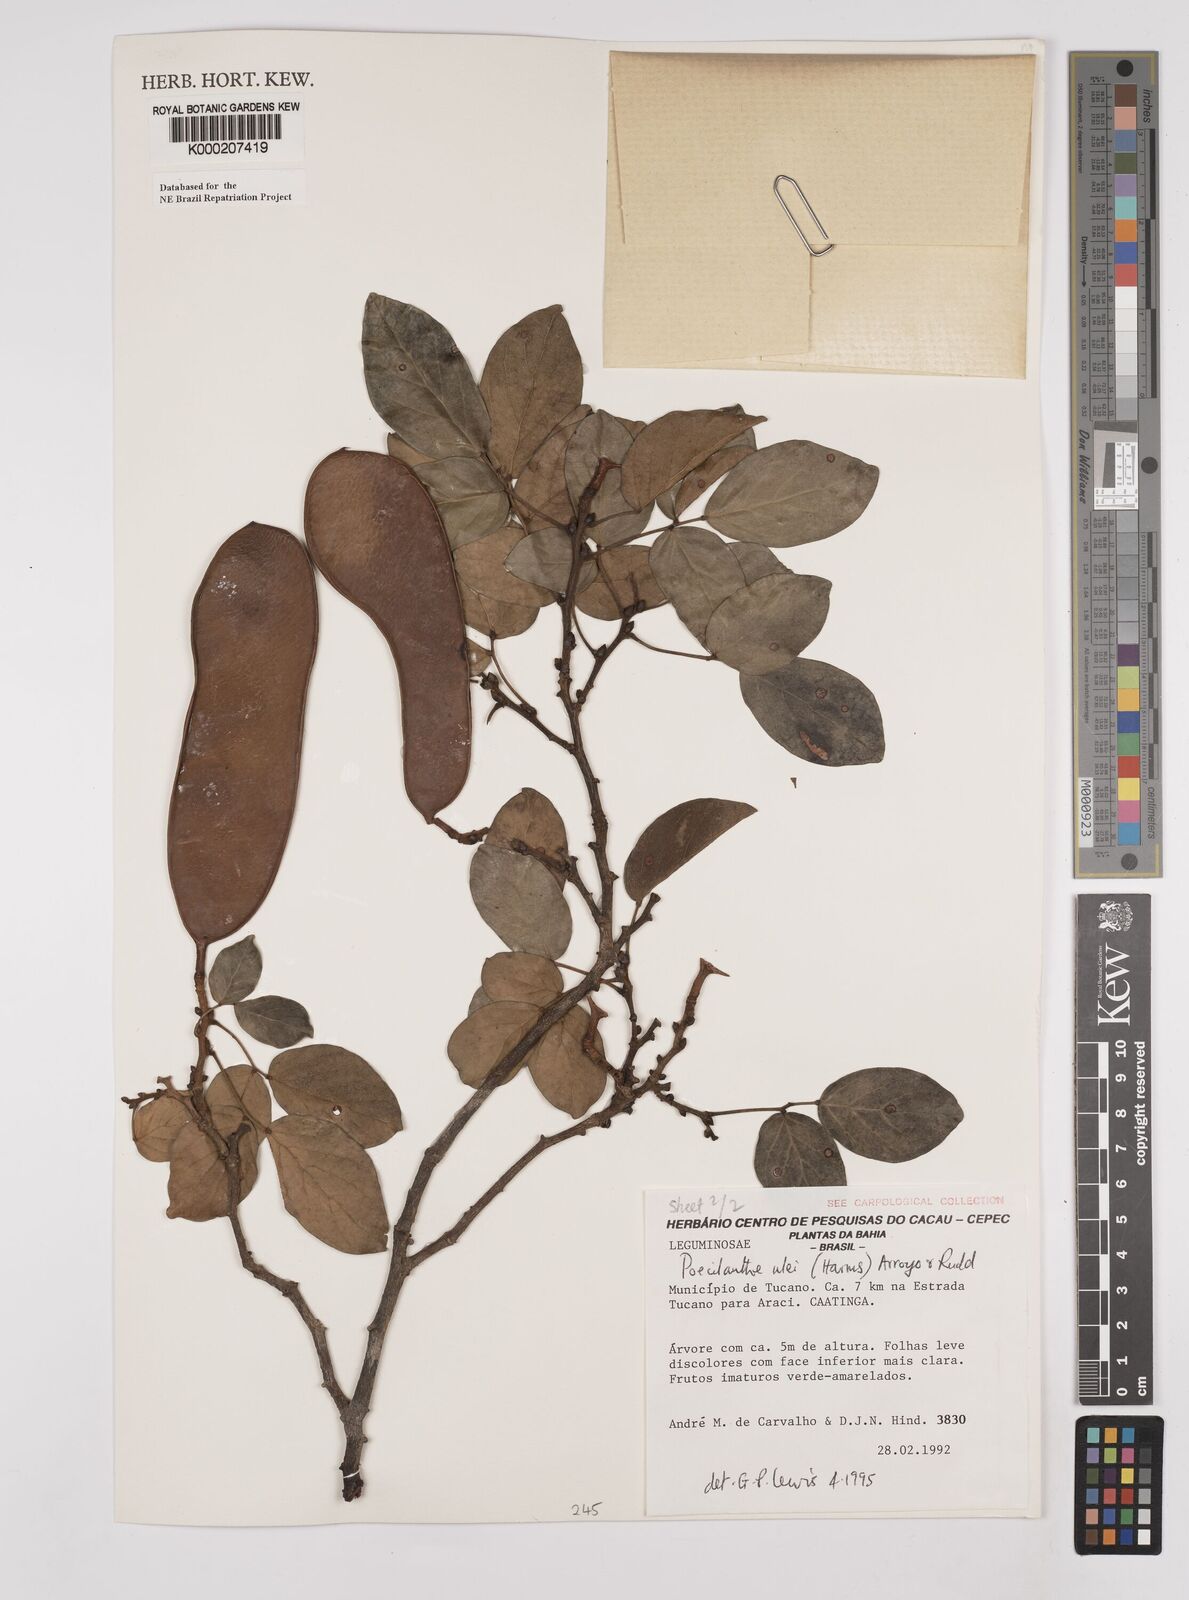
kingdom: Plantae
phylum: Tracheophyta
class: Magnoliopsida
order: Fabales
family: Fabaceae
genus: Poecilanthe
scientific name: Poecilanthe ulei
